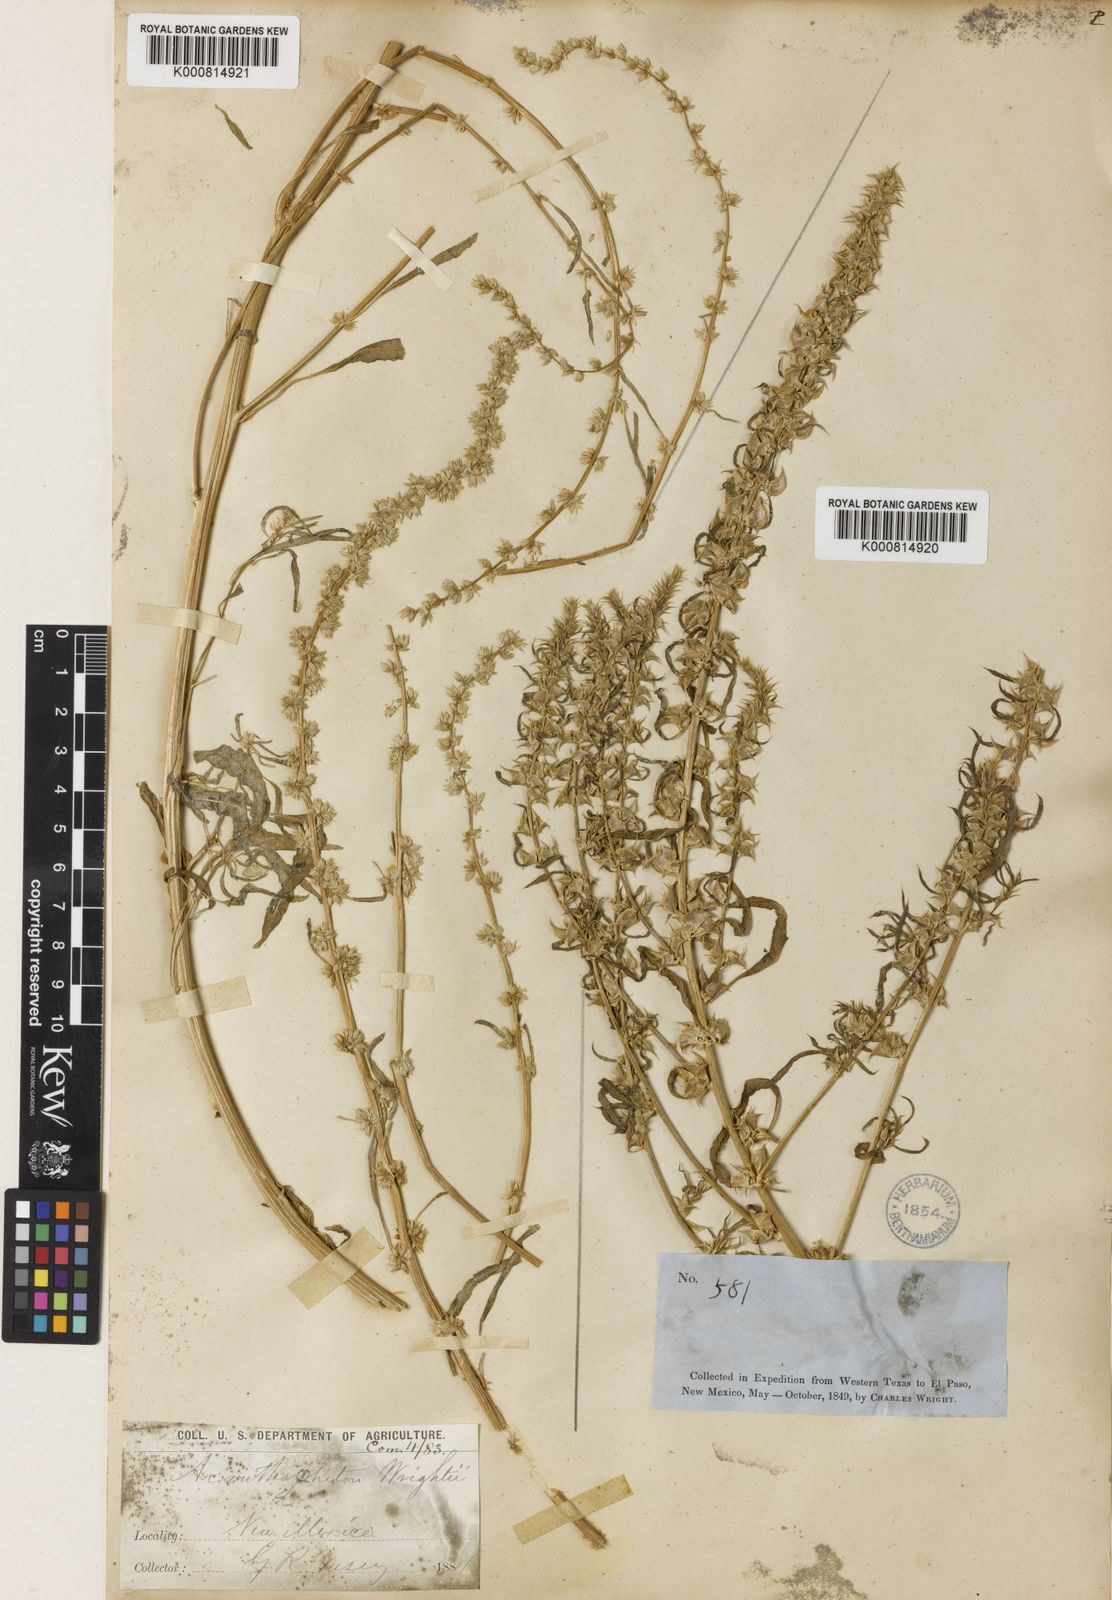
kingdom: Plantae
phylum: Tracheophyta
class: Magnoliopsida
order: Caryophyllales
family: Amaranthaceae
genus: Amaranthus
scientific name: Amaranthus acanthochiton
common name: Greenstripe
